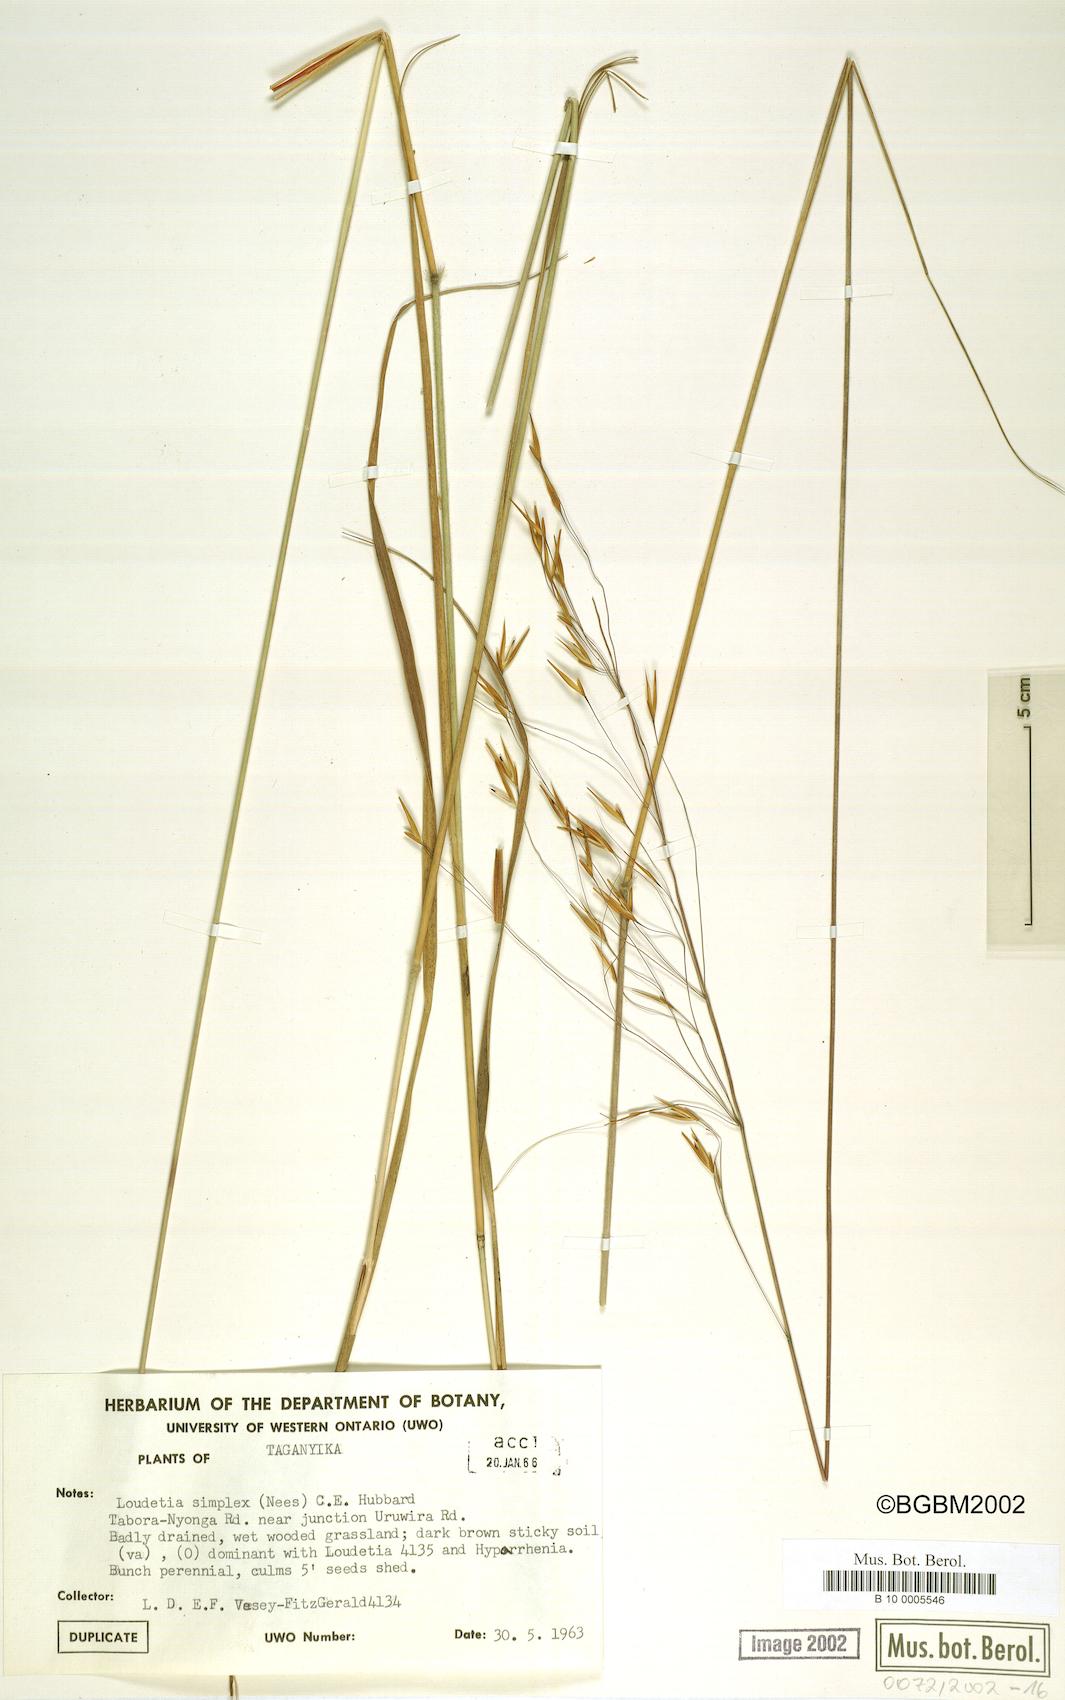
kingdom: Plantae
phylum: Tracheophyta
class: Liliopsida
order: Poales
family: Poaceae
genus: Loudetia
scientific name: Loudetia simplex
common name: Common russet grass
